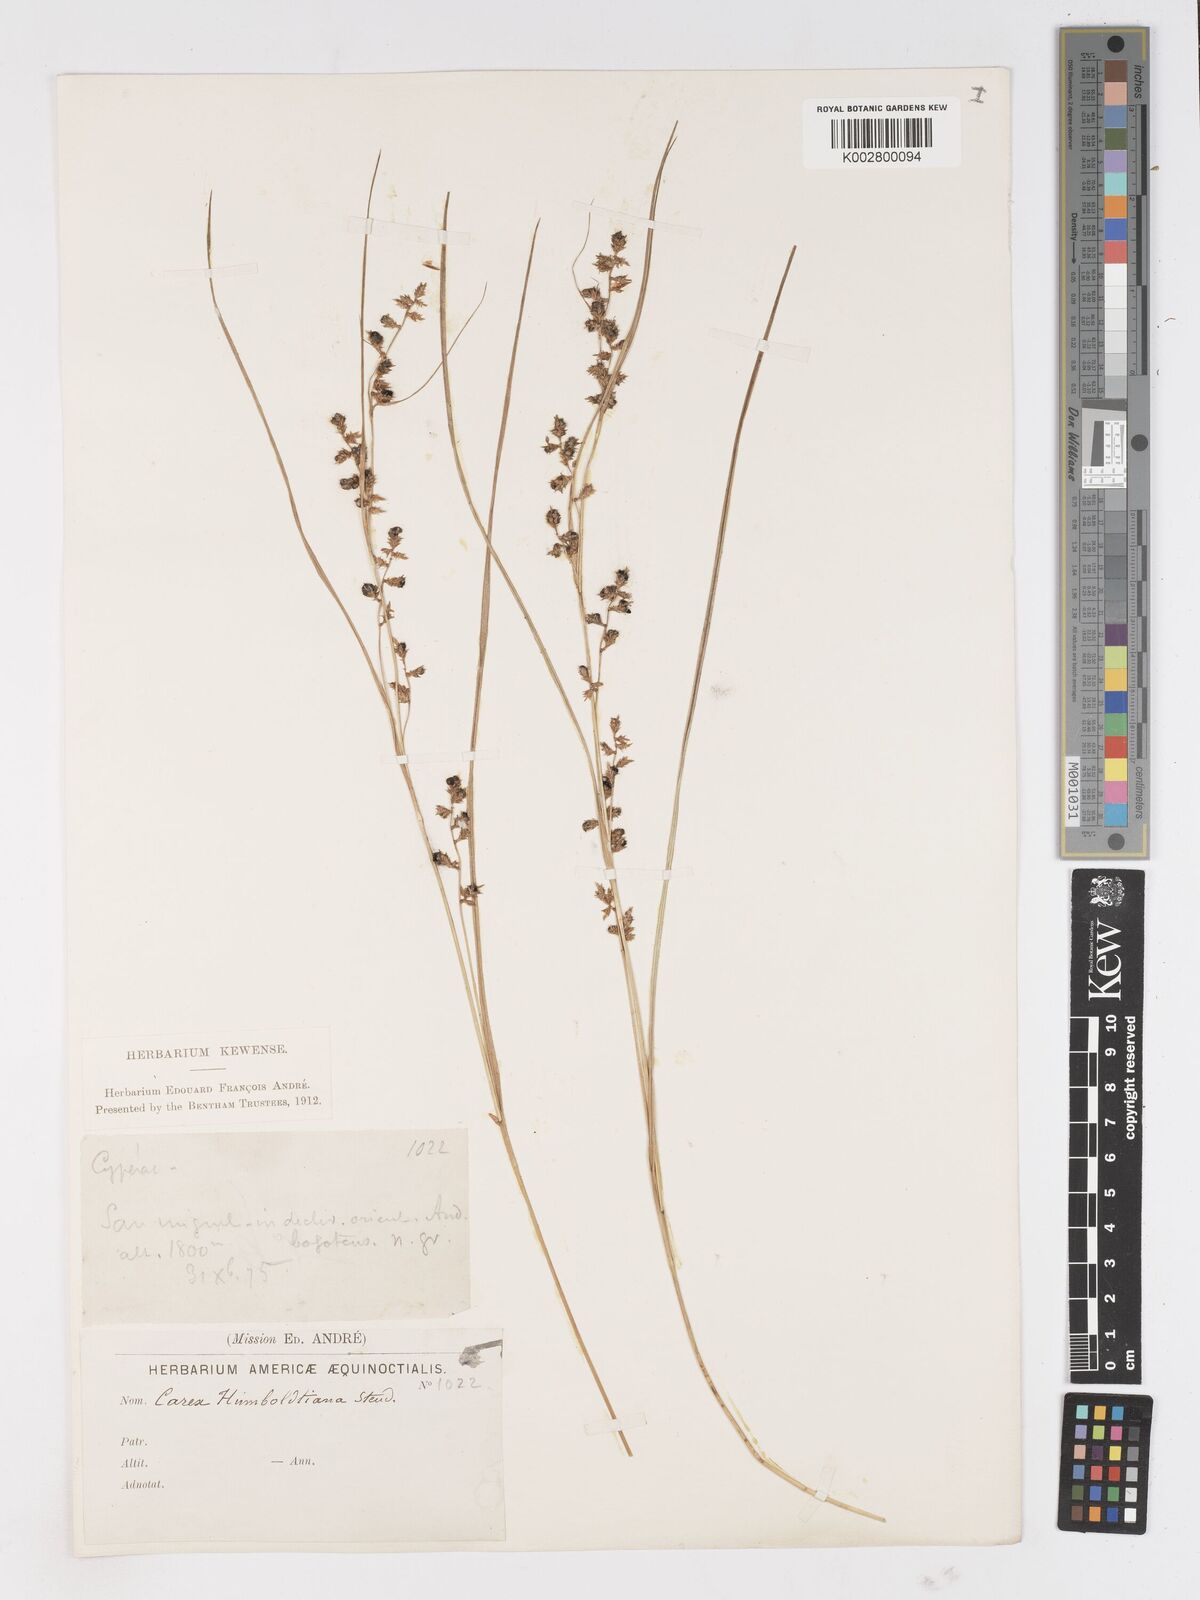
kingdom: Plantae
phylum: Tracheophyta
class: Liliopsida
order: Poales
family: Cyperaceae
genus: Carex
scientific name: Carex polystachya
